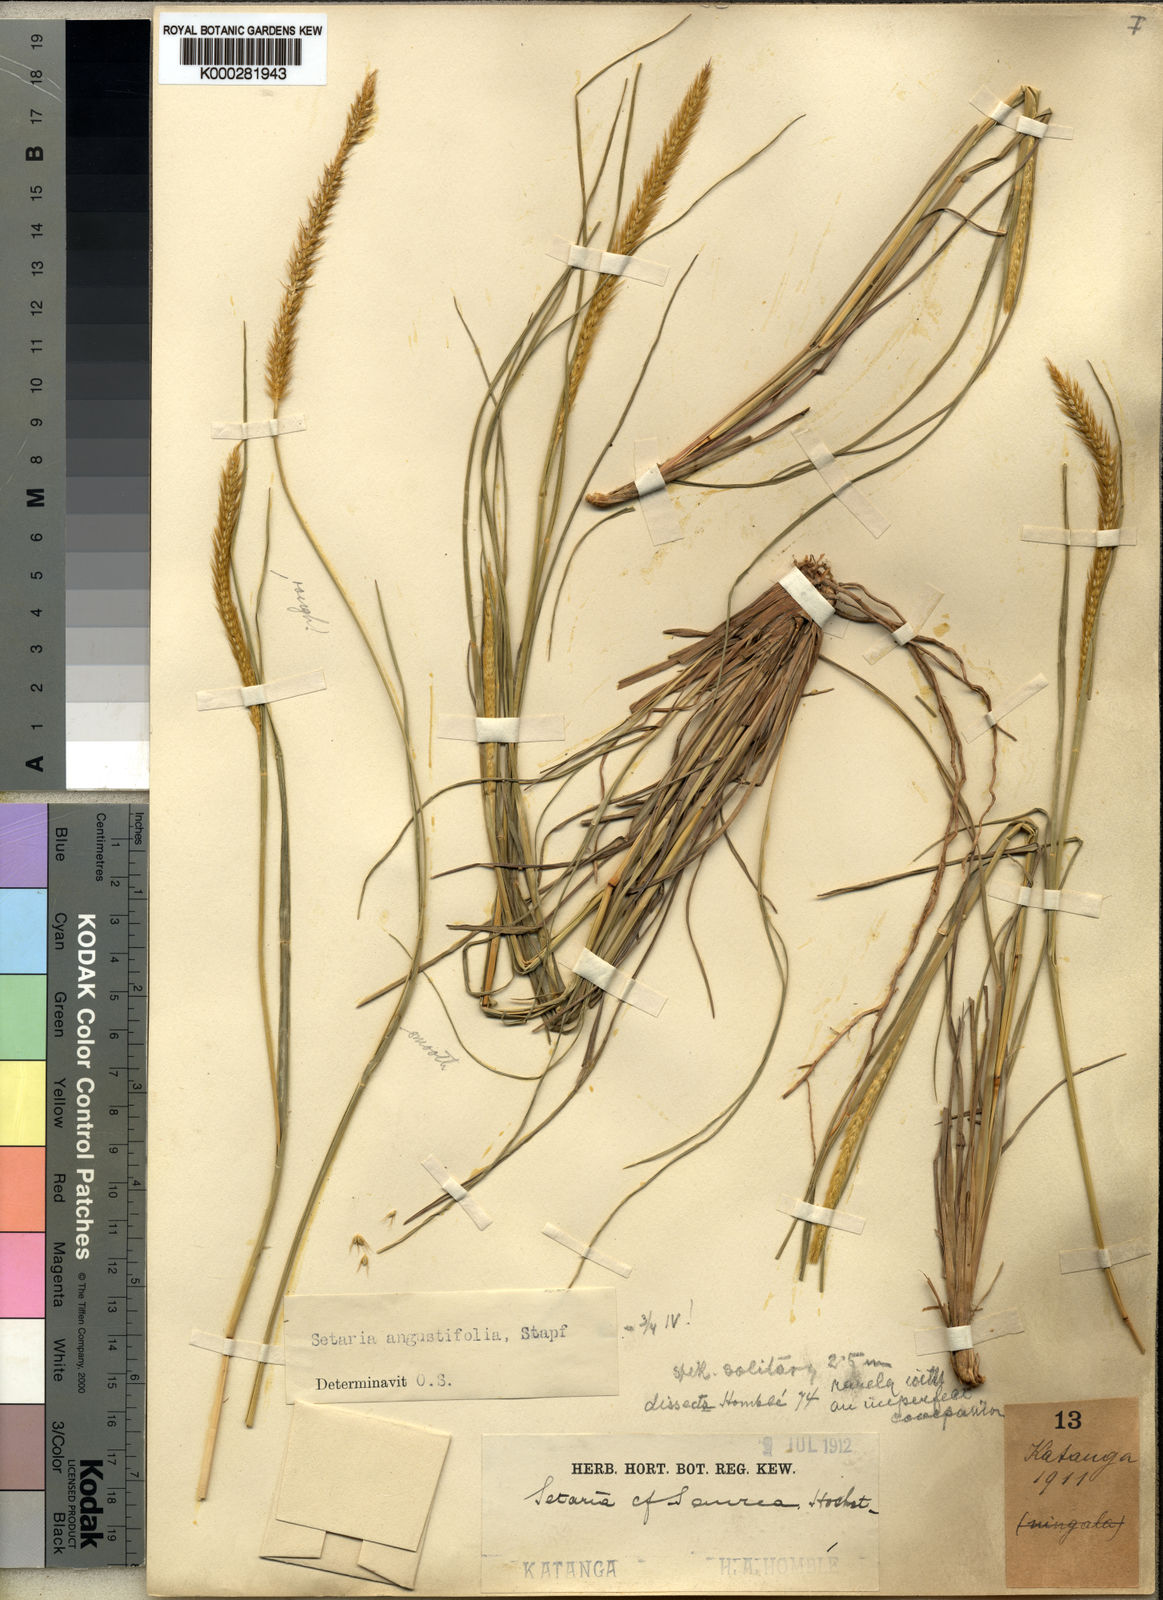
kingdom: Plantae
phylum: Tracheophyta
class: Liliopsida
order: Poales
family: Poaceae
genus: Setaria
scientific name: Setaria sphacelata
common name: African bristlegrass
